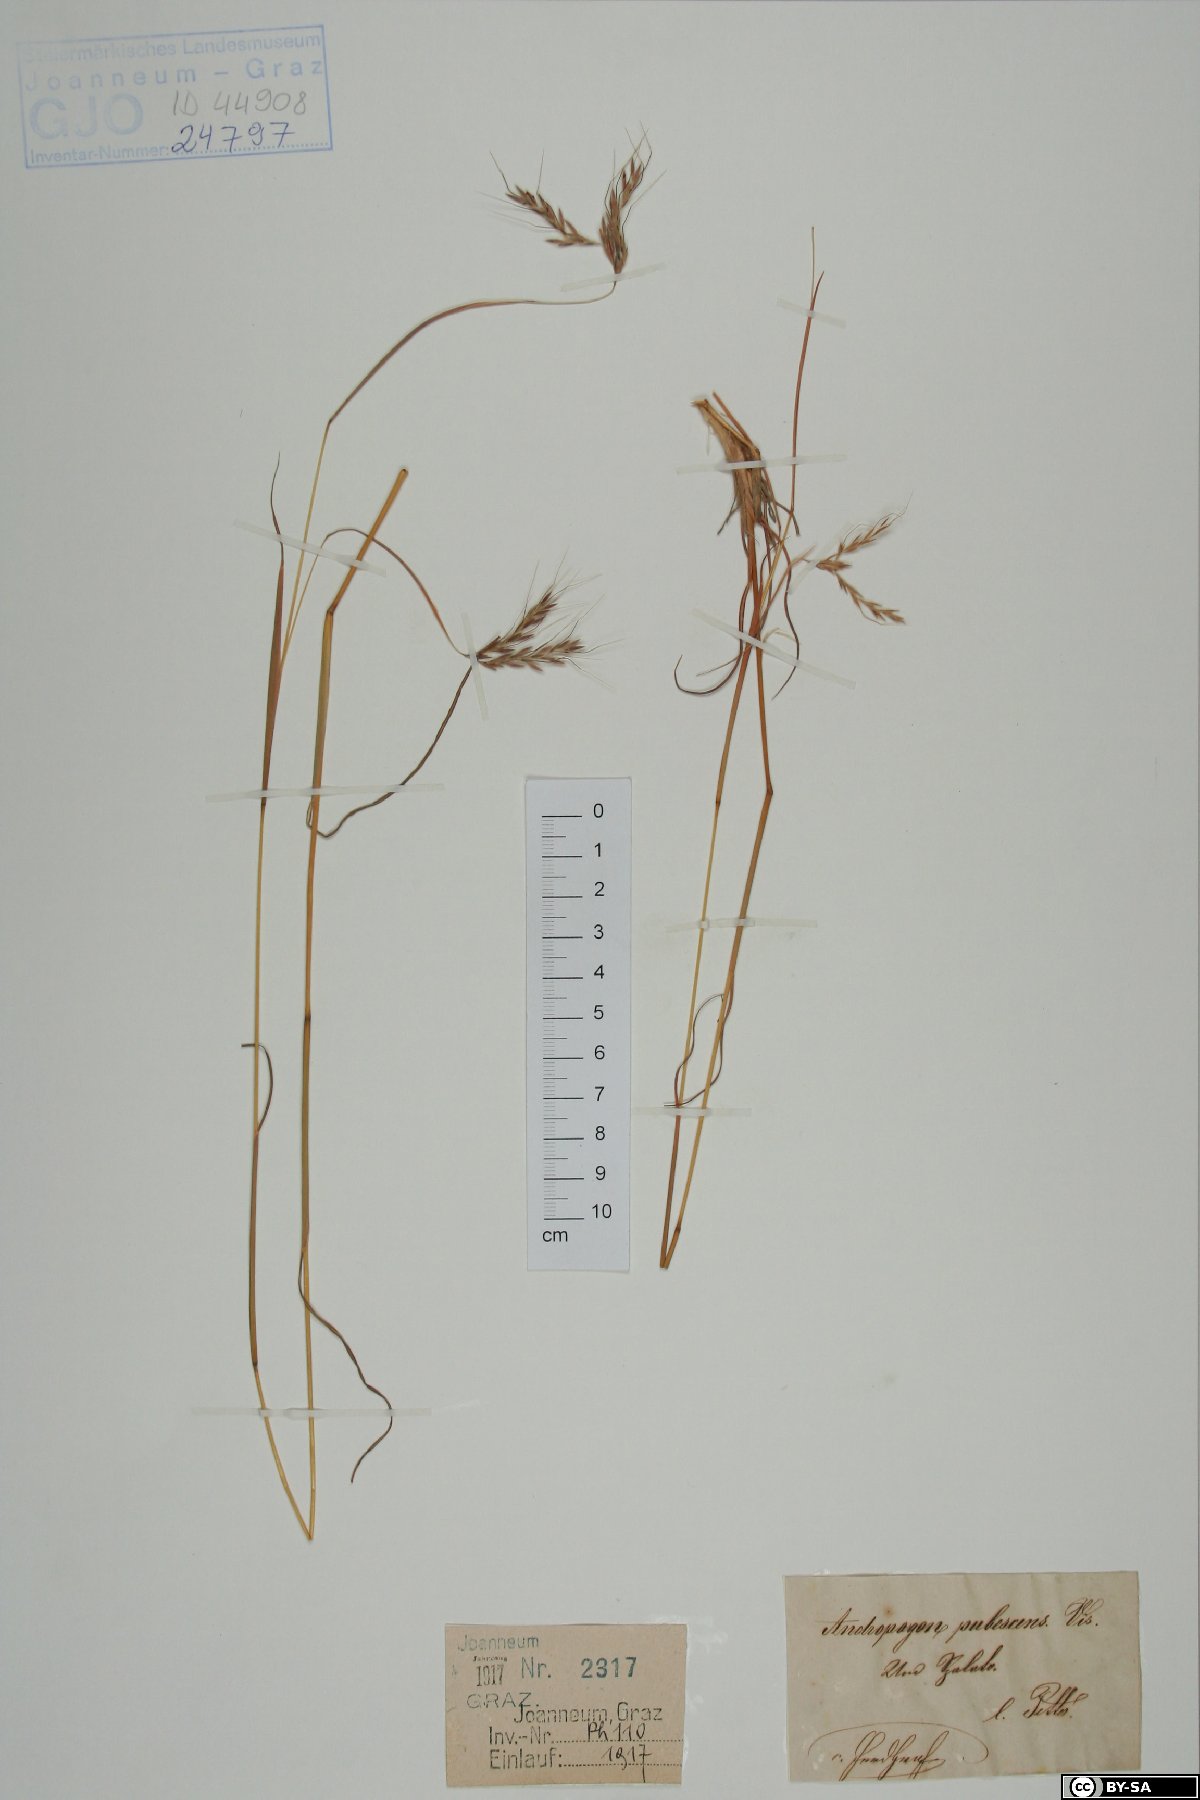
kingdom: Plantae
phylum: Tracheophyta
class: Liliopsida
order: Poales
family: Poaceae
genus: Hyparrhenia
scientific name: Hyparrhenia hirta
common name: Thatching grass
